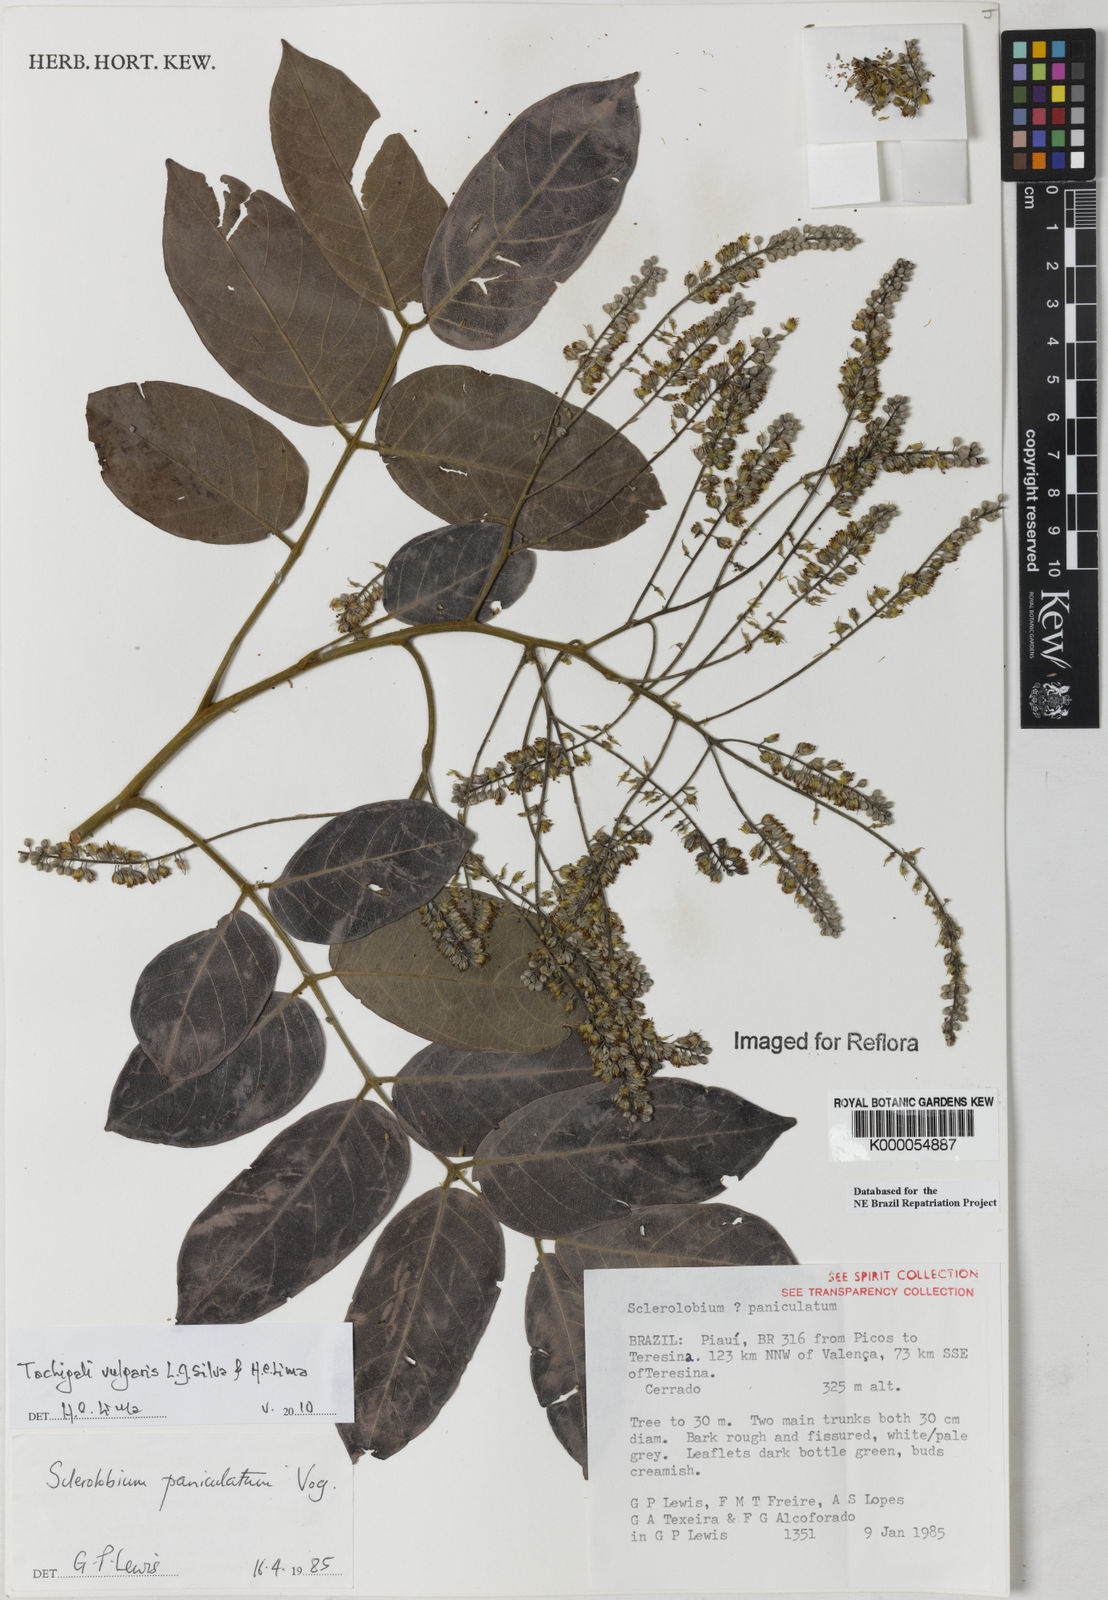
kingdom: Plantae
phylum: Tracheophyta
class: Magnoliopsida
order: Fabales
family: Fabaceae
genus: Tachigali
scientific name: Tachigali vulgaris
